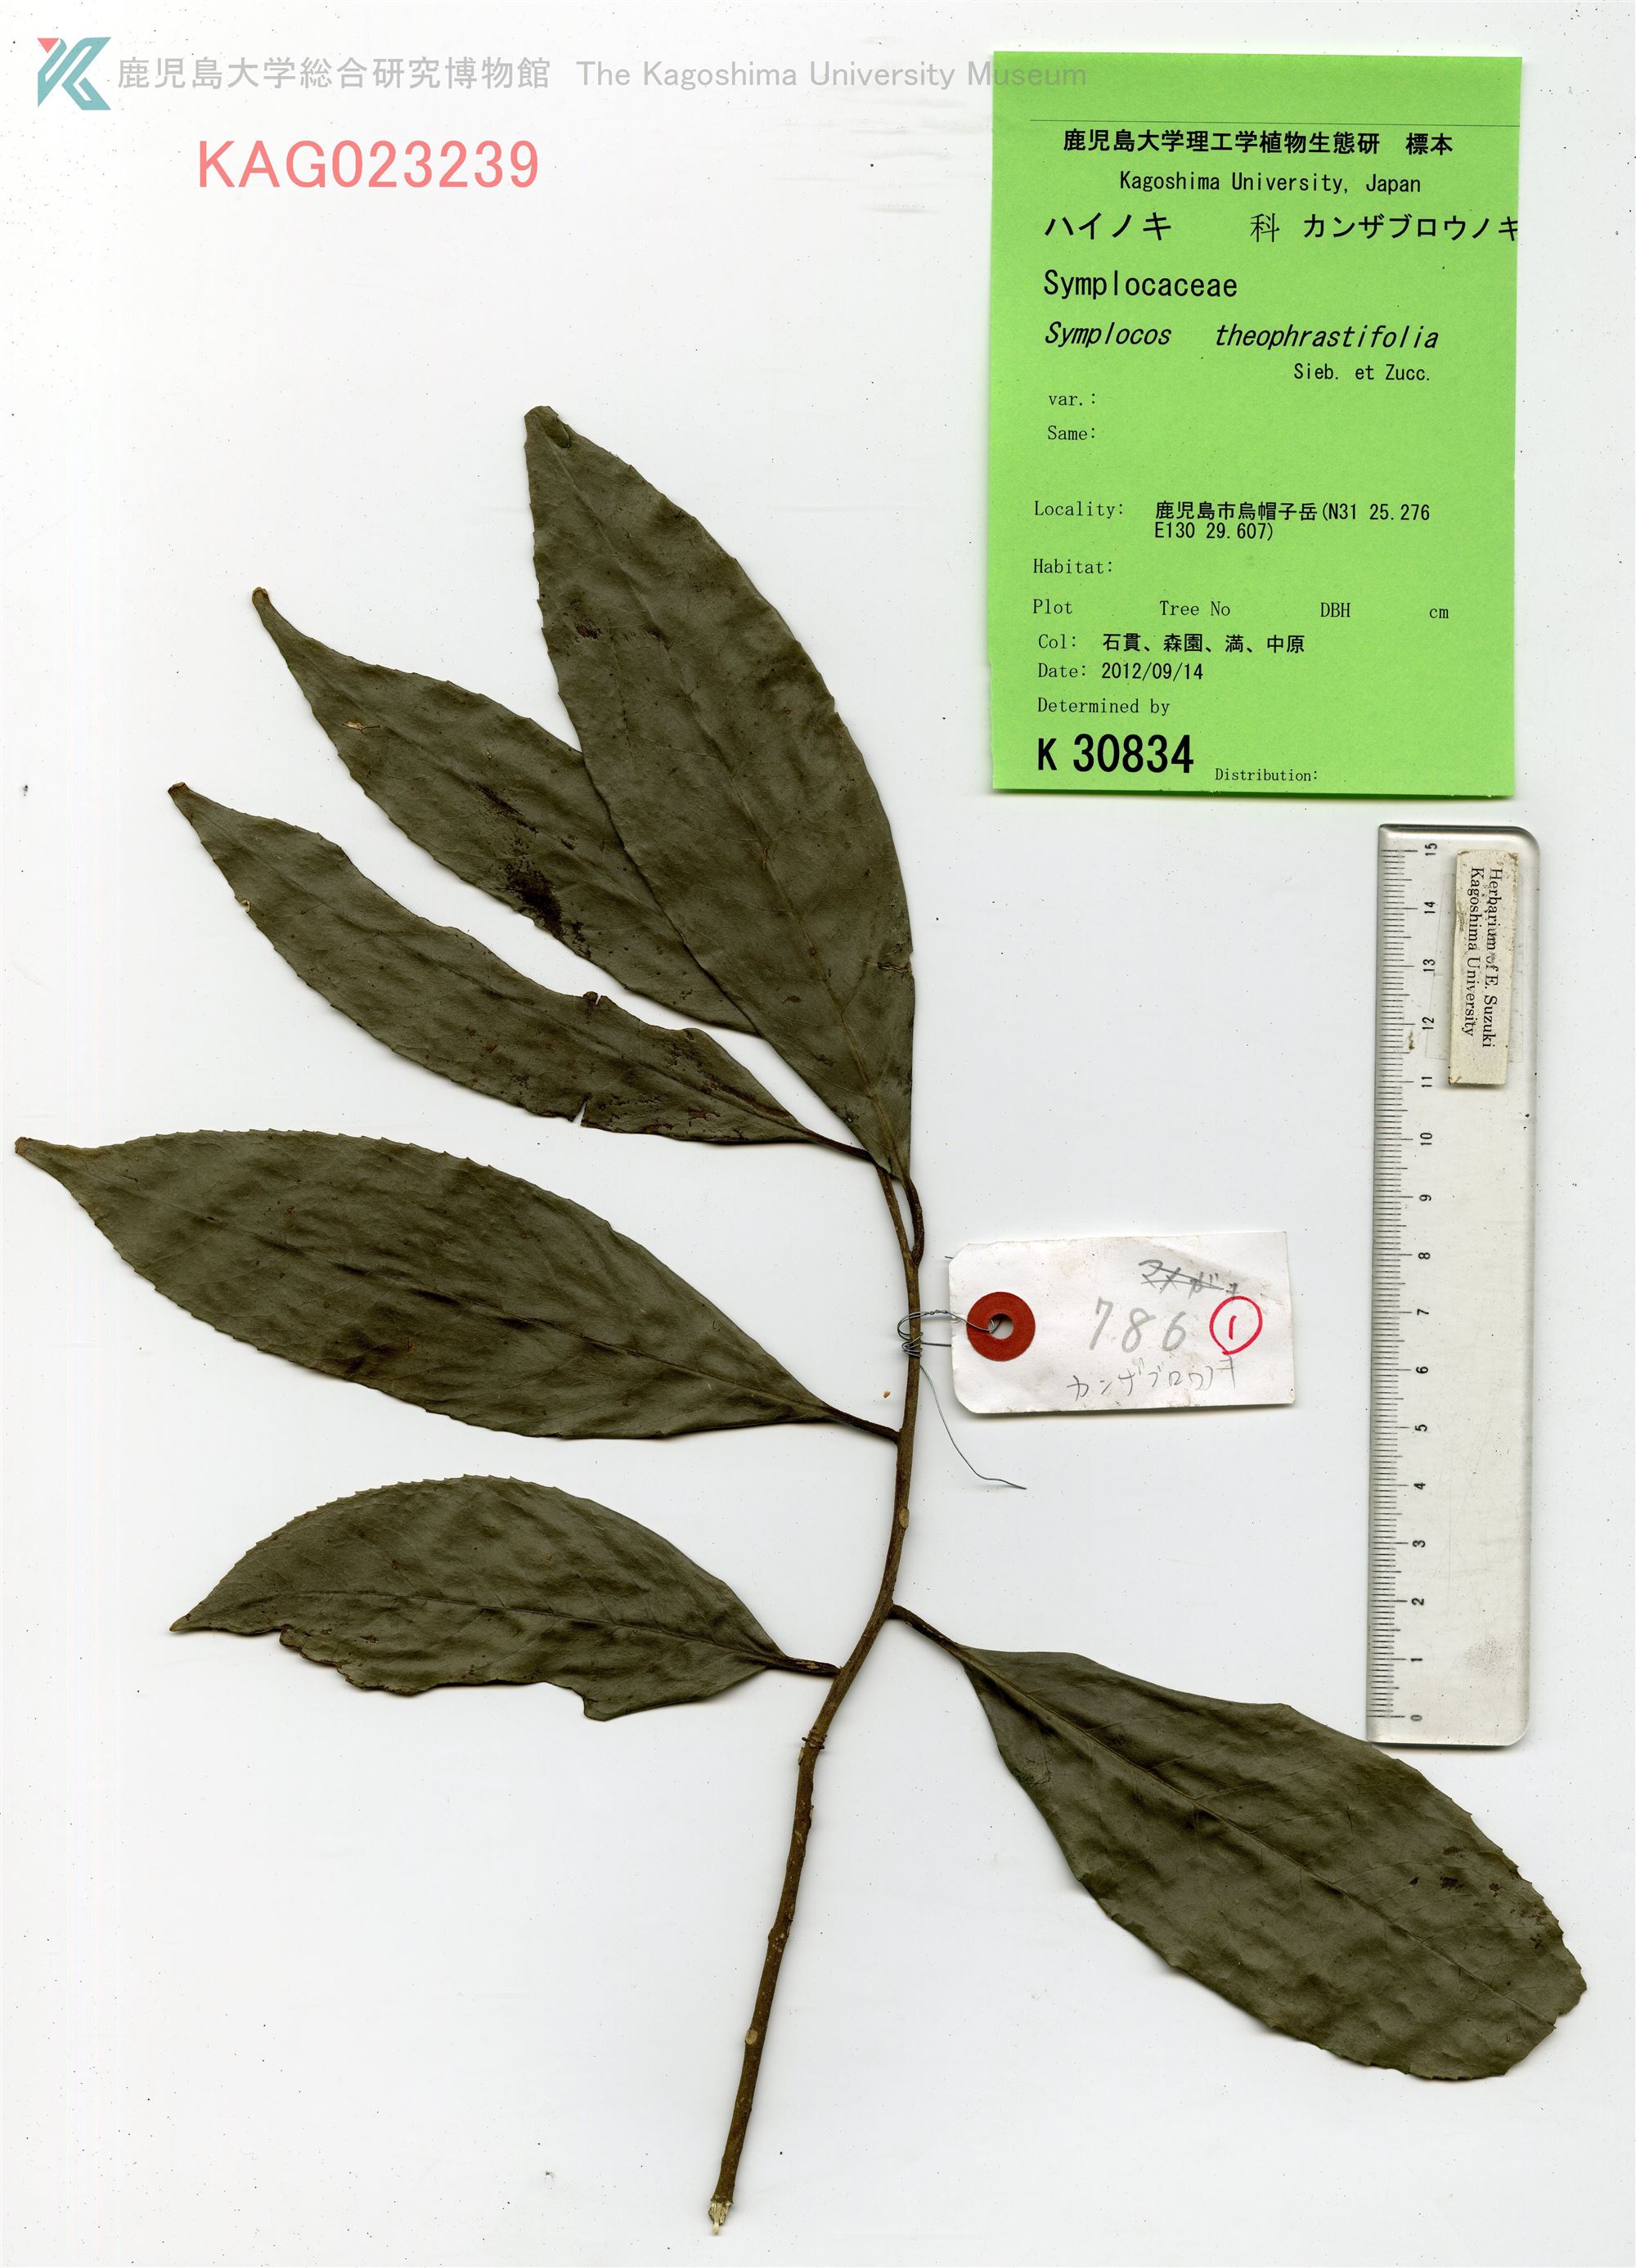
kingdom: Plantae
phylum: Tracheophyta
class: Magnoliopsida
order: Ericales
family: Symplocaceae
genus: Symplocos
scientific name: Symplocos theophrastifolia
